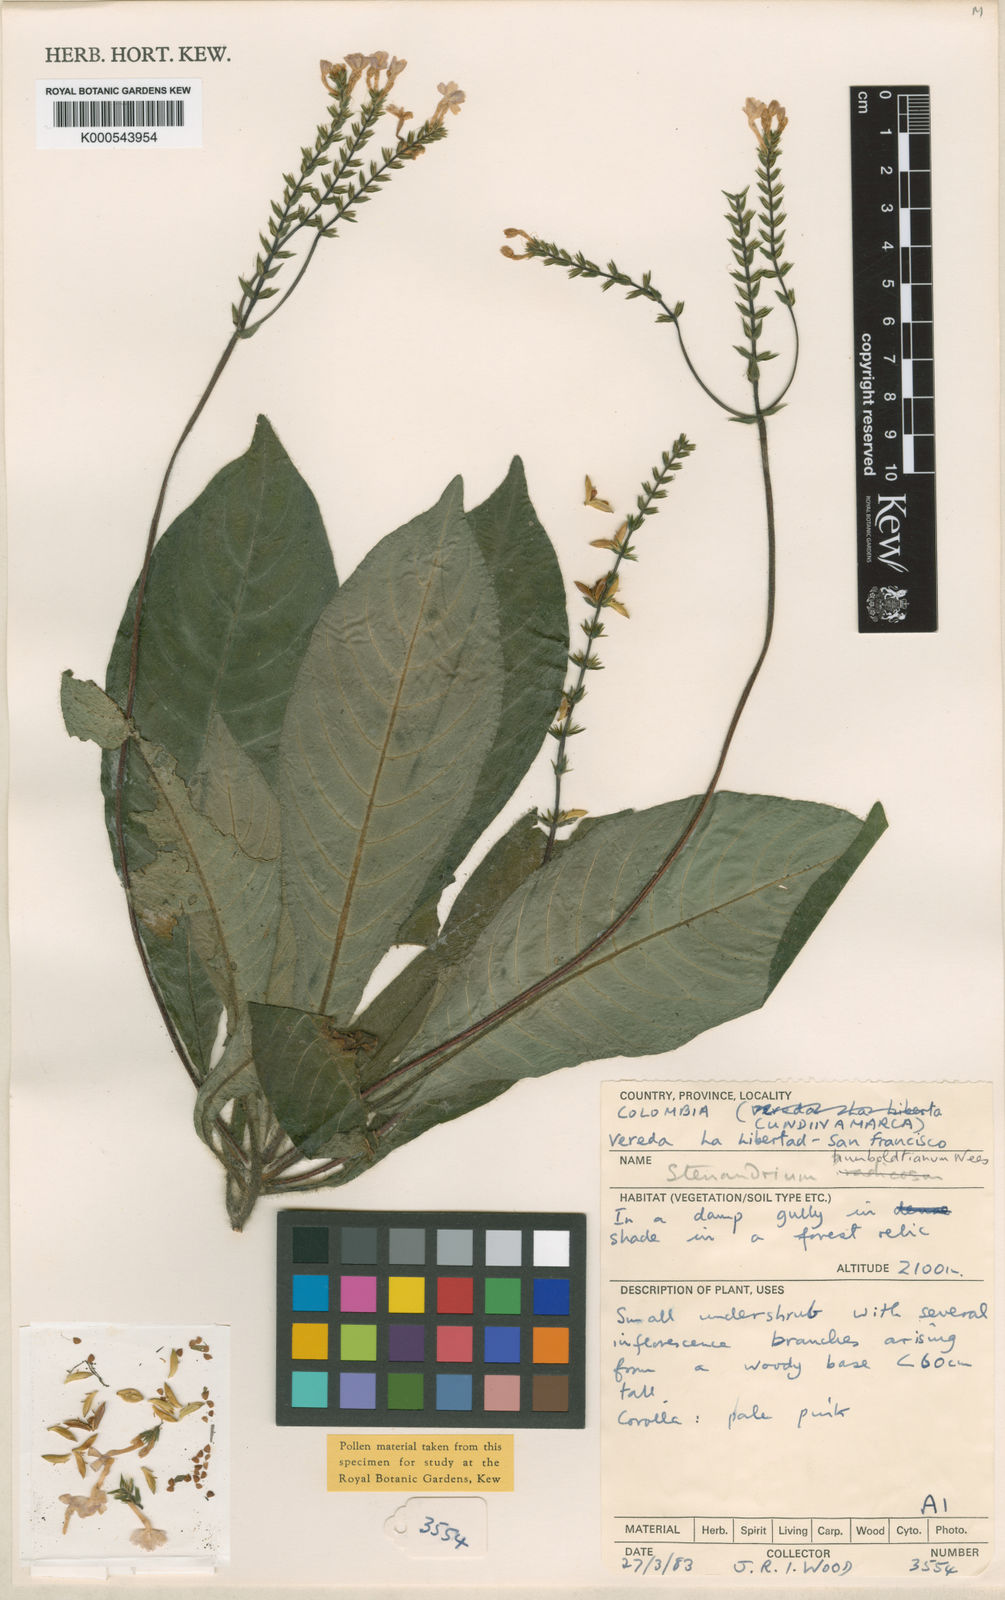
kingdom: Plantae
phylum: Tracheophyta
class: Magnoliopsida
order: Lamiales
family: Acanthaceae
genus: Stenandrium
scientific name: Stenandrium humboldtianum
